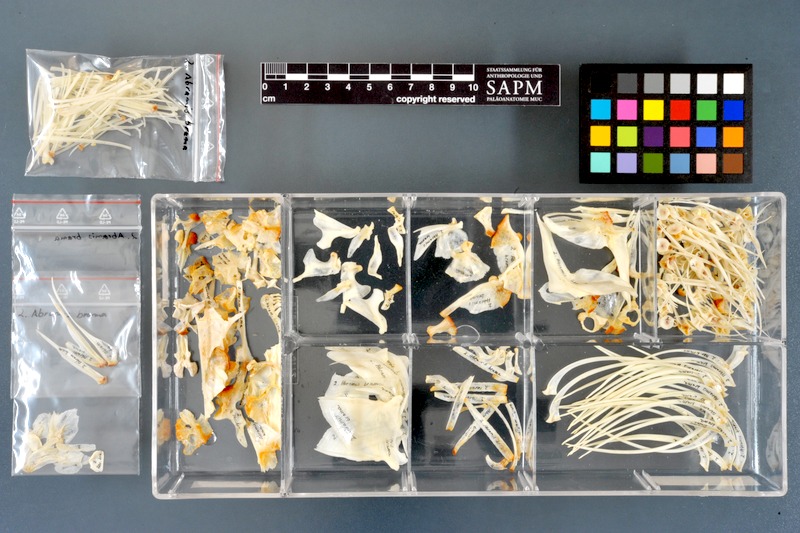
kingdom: Animalia
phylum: Chordata
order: Cypriniformes
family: Cyprinidae
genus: Abramis
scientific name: Abramis brama
